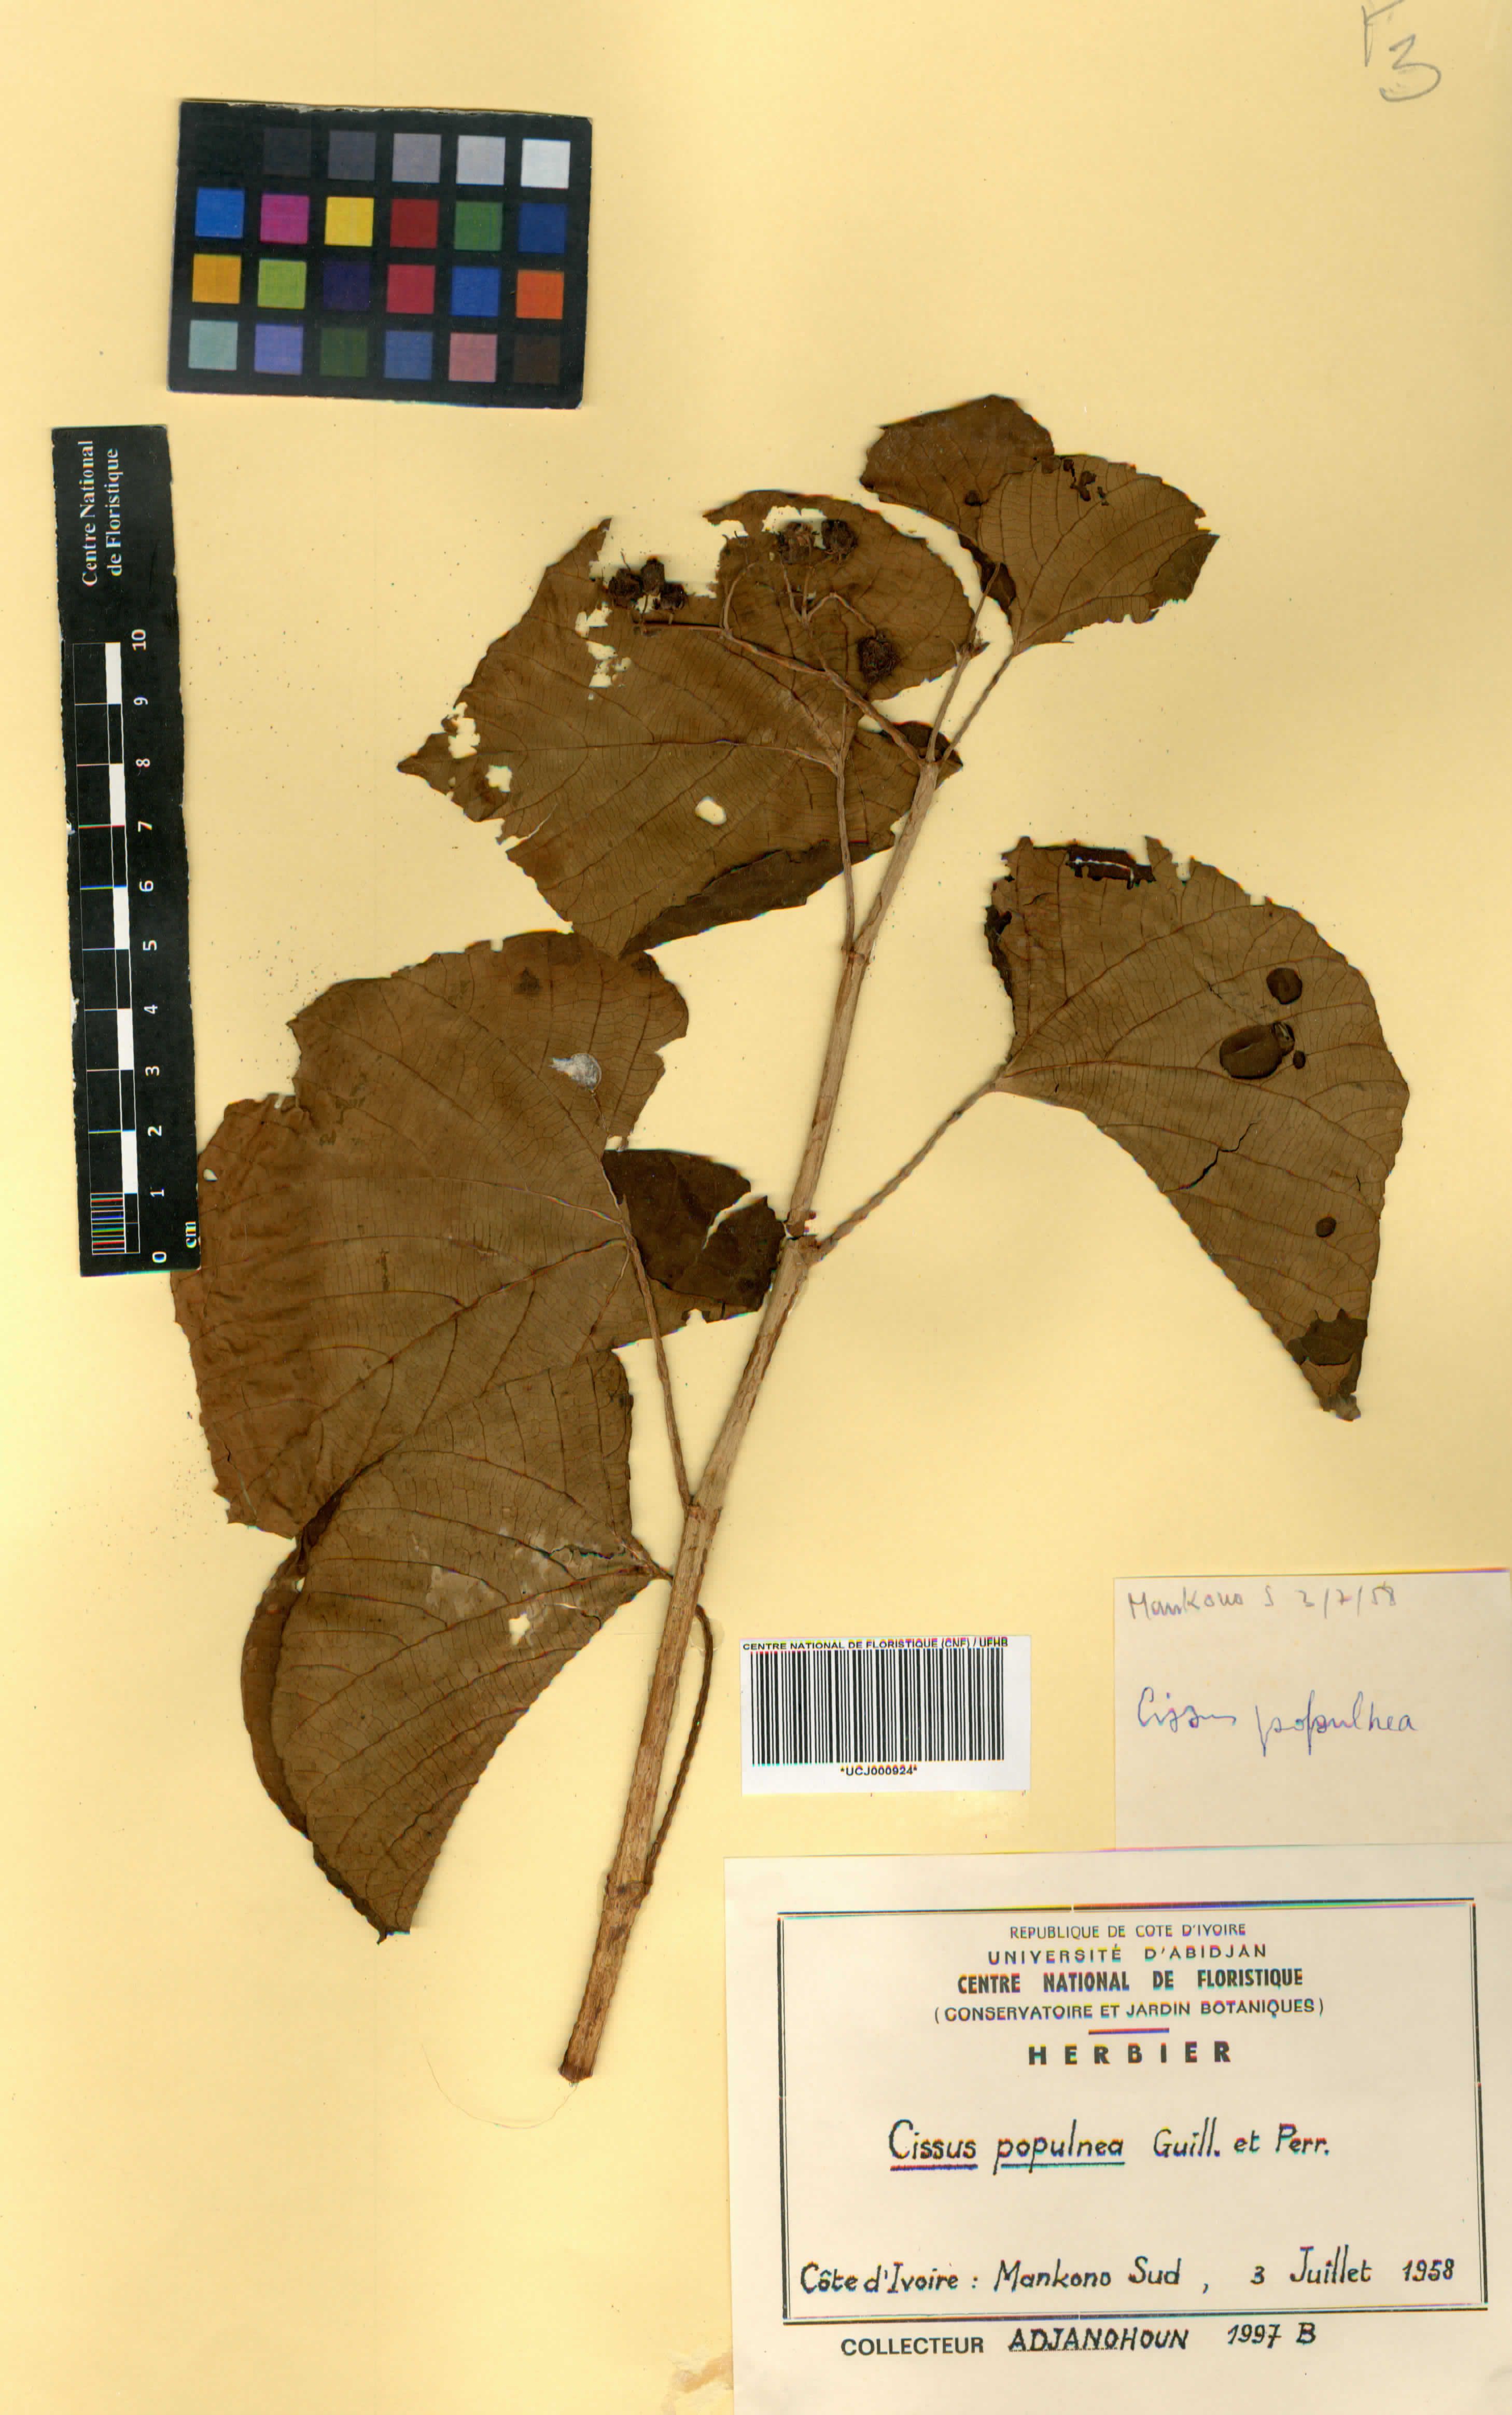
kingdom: Plantae
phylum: Tracheophyta
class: Magnoliopsida
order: Vitales
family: Vitaceae
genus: Cissus
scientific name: Cissus populnea
